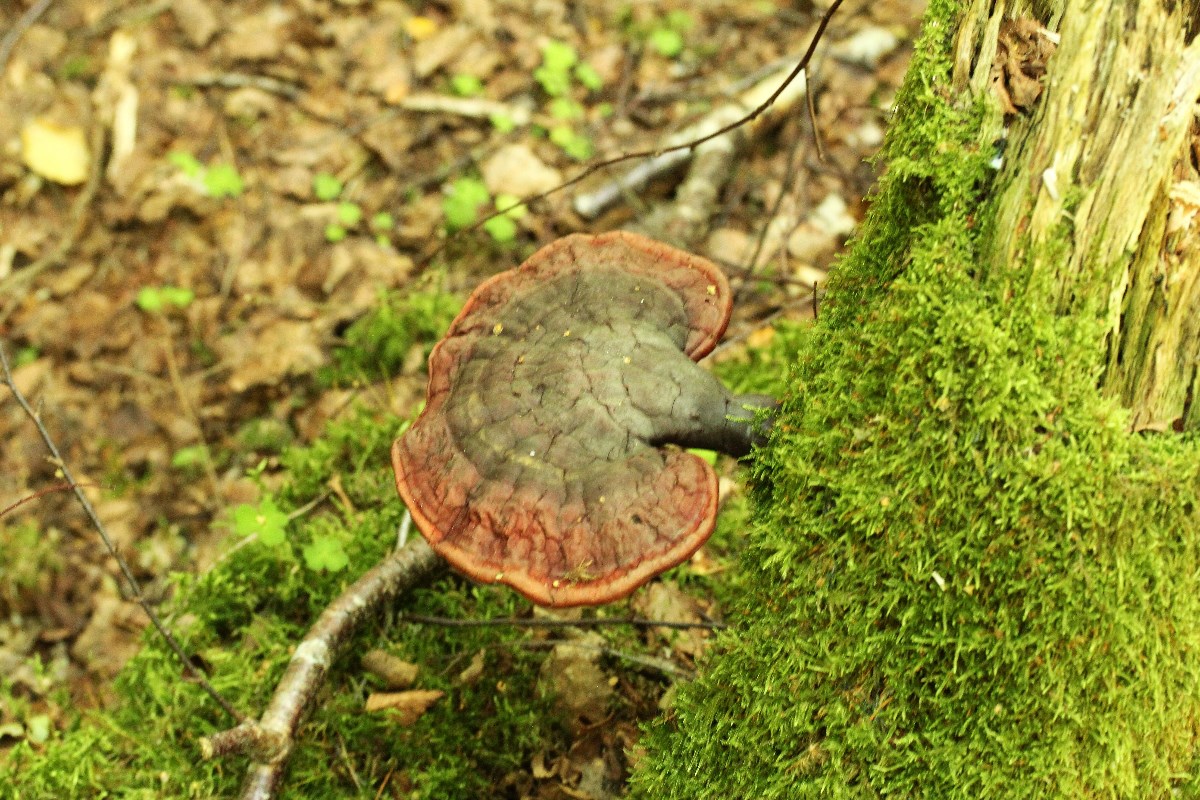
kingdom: Fungi
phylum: Basidiomycota
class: Agaricomycetes
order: Polyporales
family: Polyporaceae
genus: Ganoderma
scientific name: Ganoderma lucidum
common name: skinnende lakporesvamp
